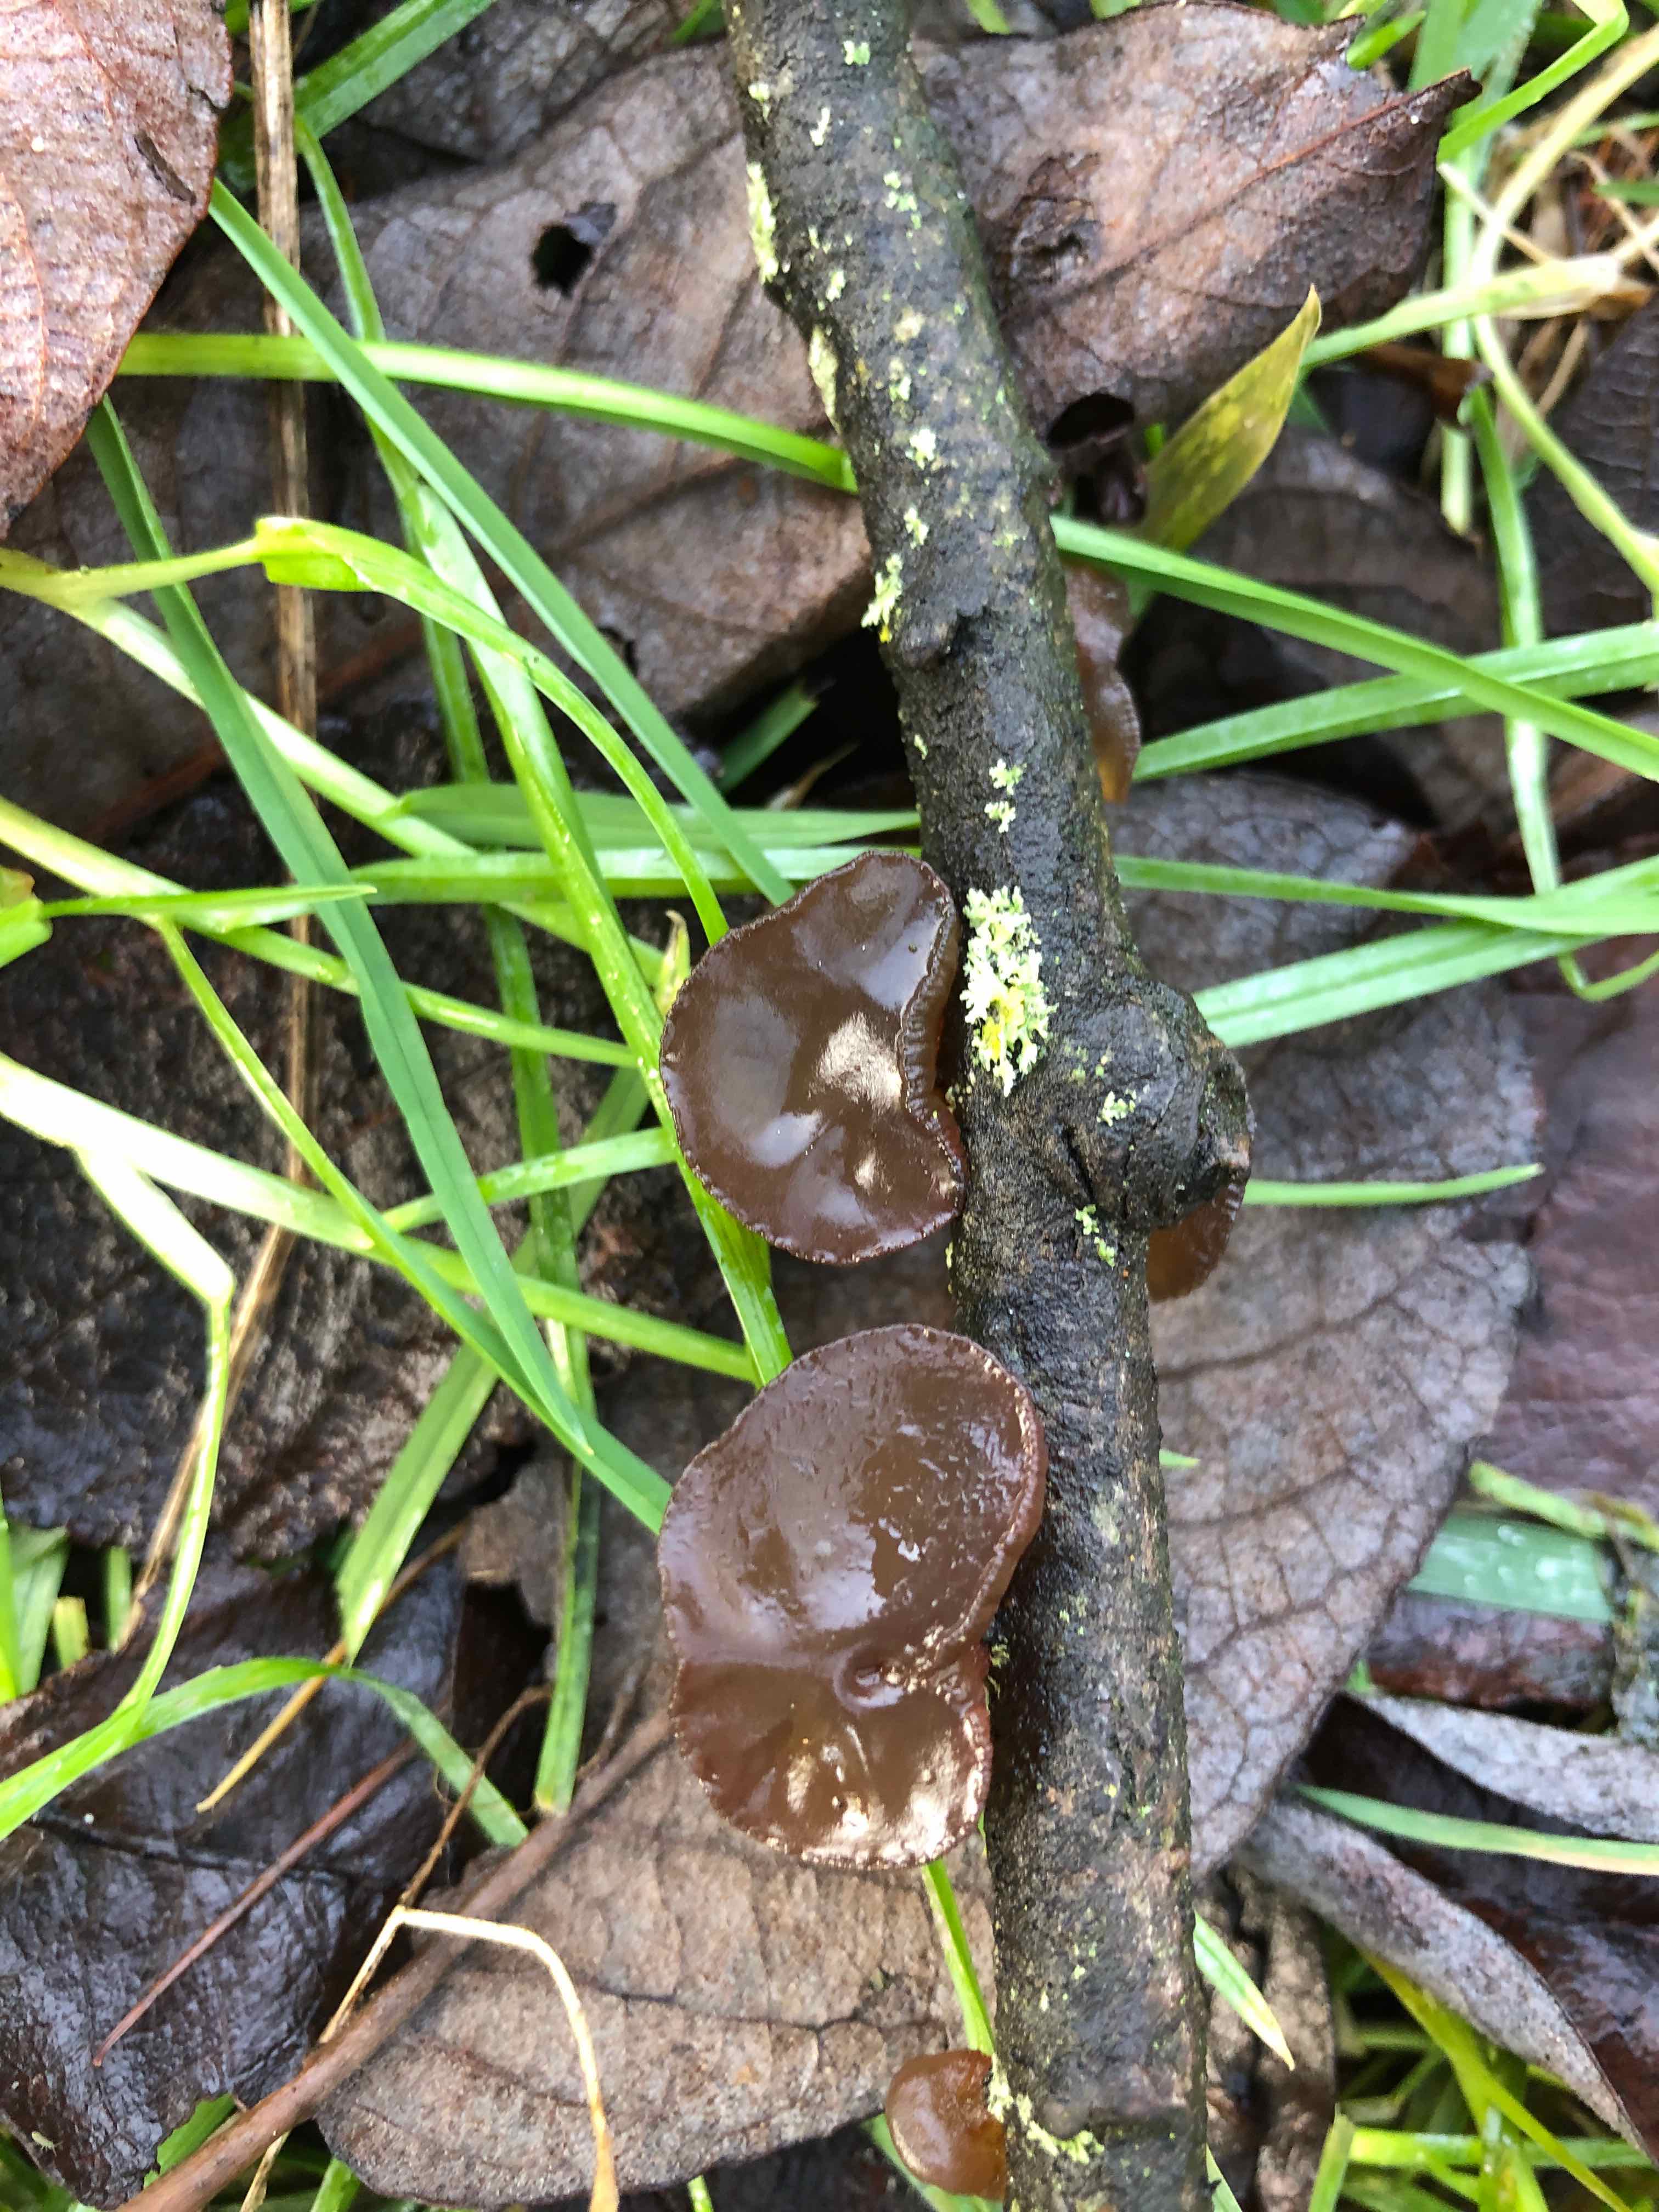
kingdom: Fungi
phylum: Basidiomycota
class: Agaricomycetes
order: Auriculariales
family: Auriculariaceae
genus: Exidia
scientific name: Exidia recisa
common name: pile-bævretop
